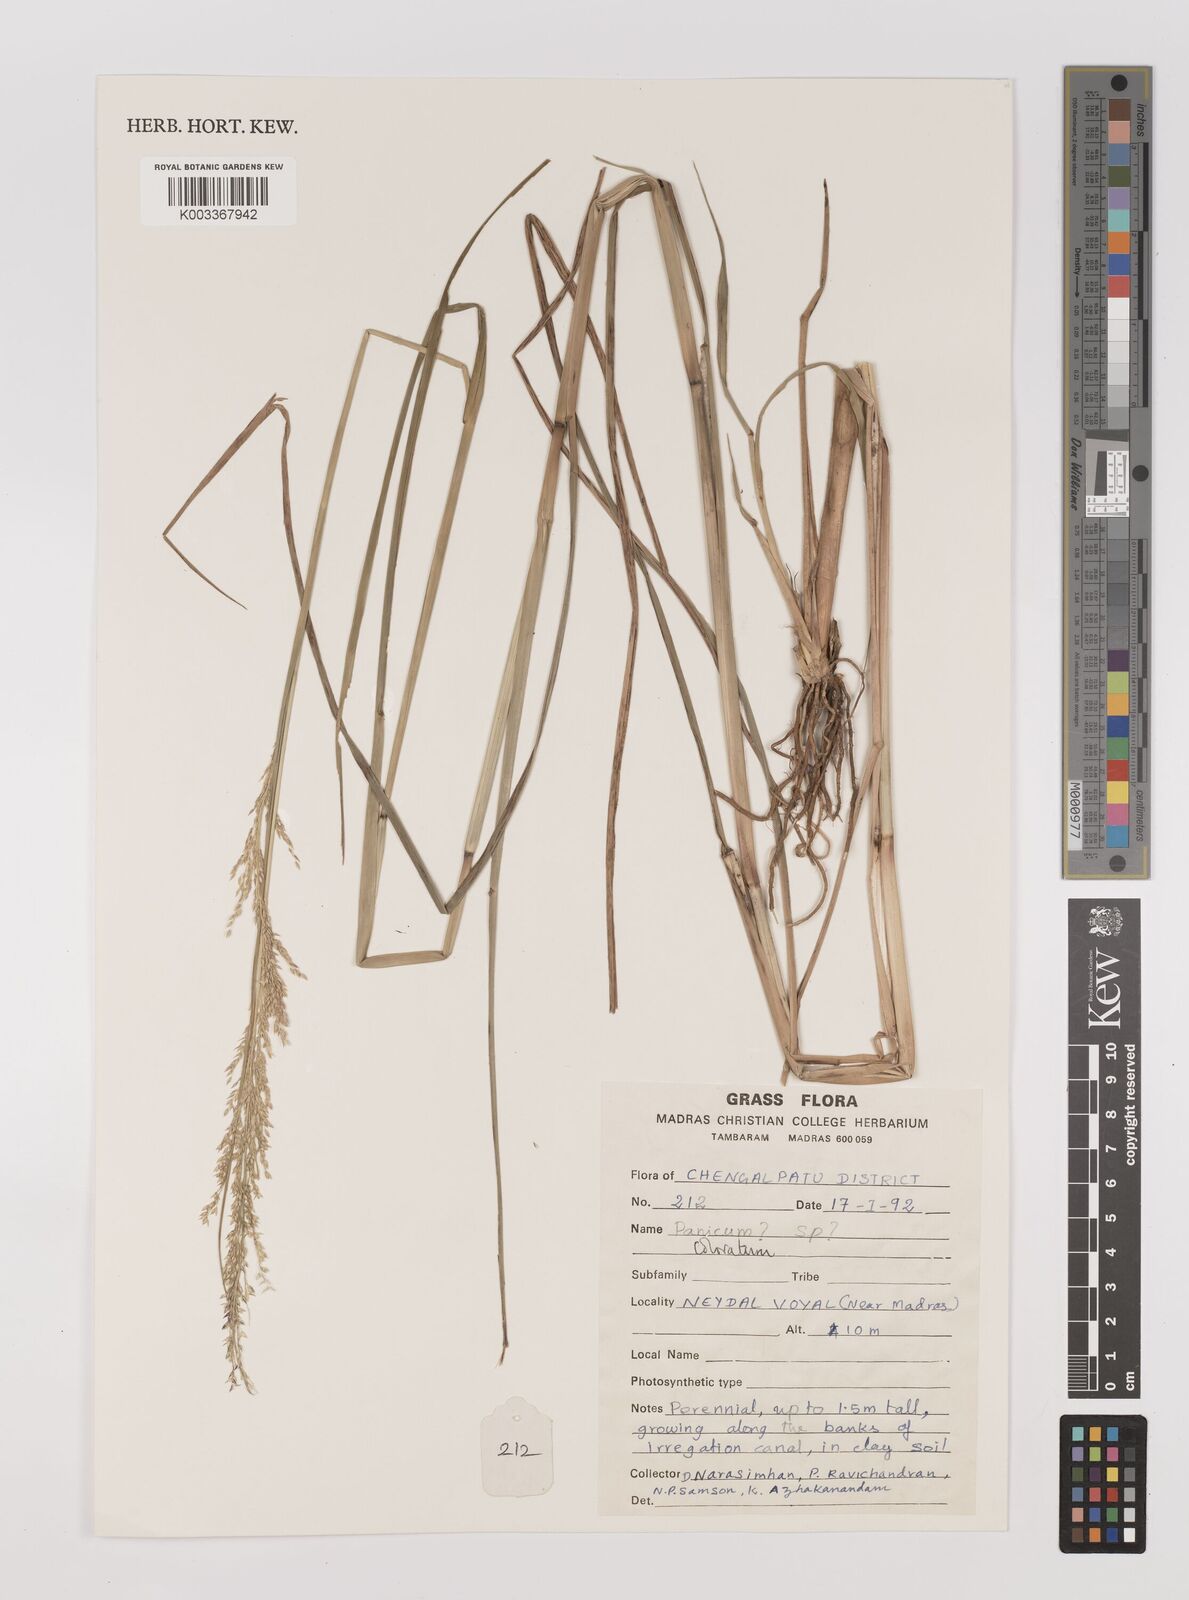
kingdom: Plantae
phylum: Tracheophyta
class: Liliopsida
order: Poales
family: Poaceae
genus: Panicum
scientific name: Panicum phoiniclados
